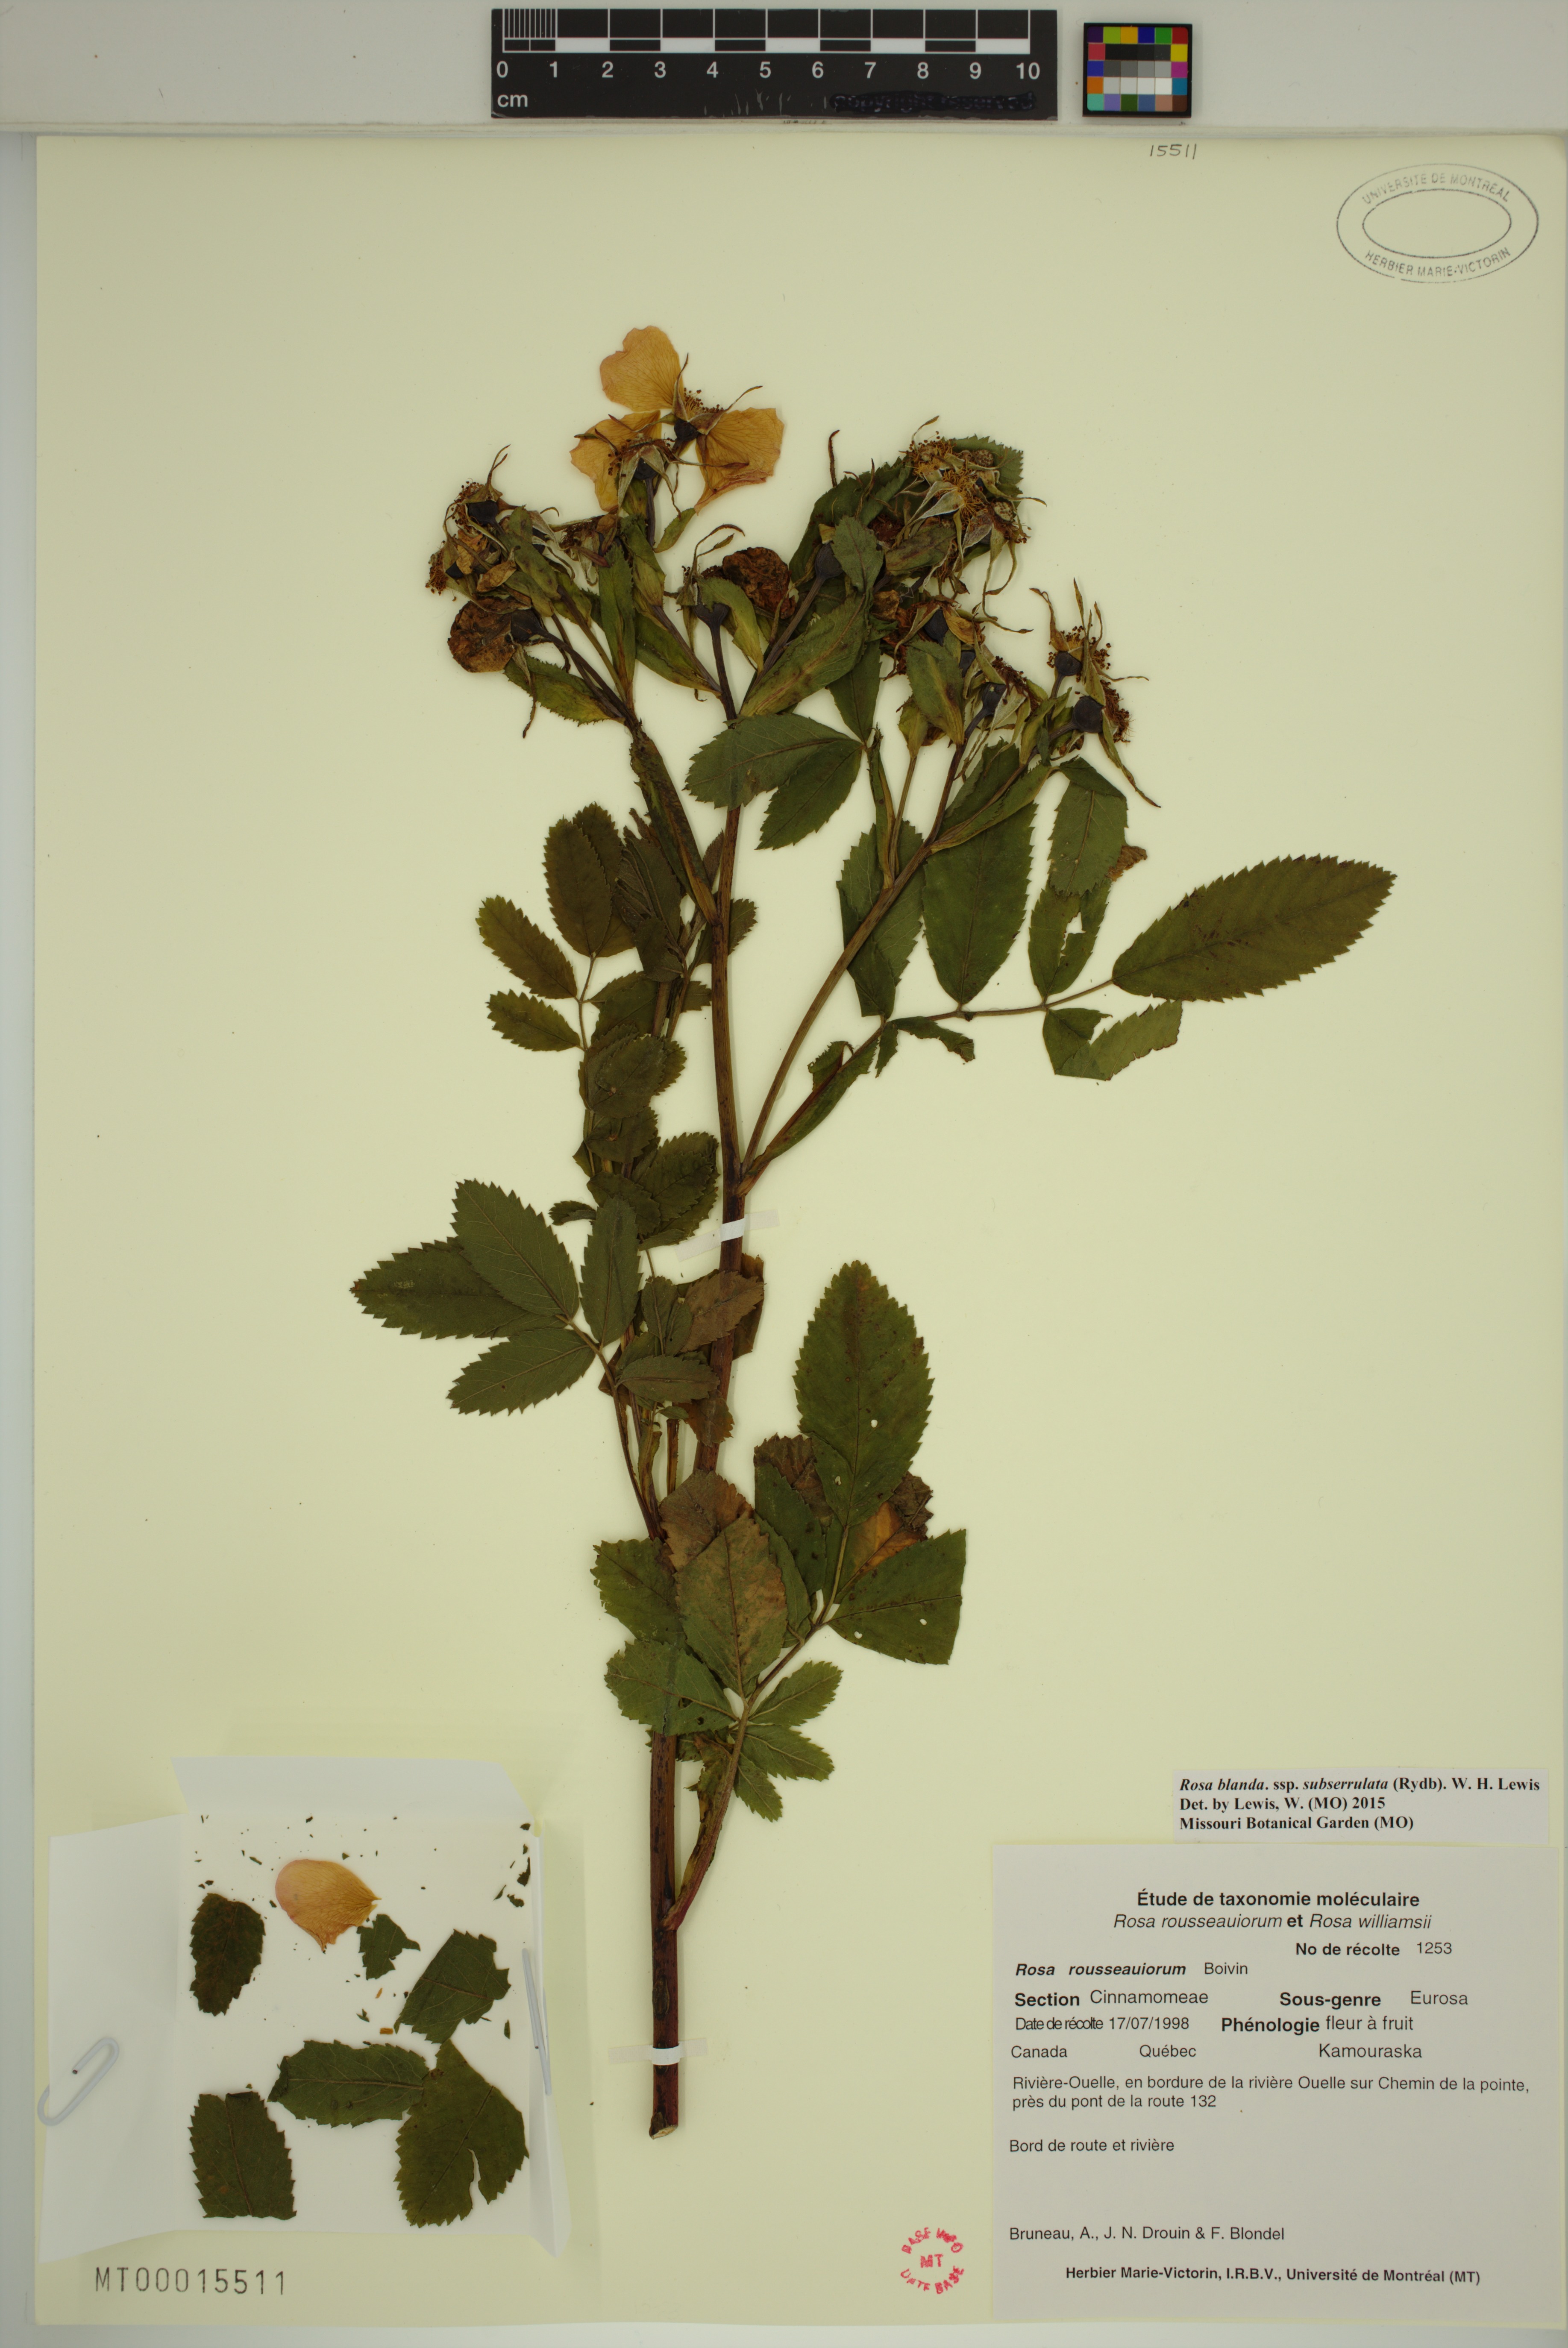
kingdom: Plantae
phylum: Tracheophyta
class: Magnoliopsida
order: Rosales
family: Rosaceae
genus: Rosa
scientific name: Rosa blanda
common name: Smooth rose
